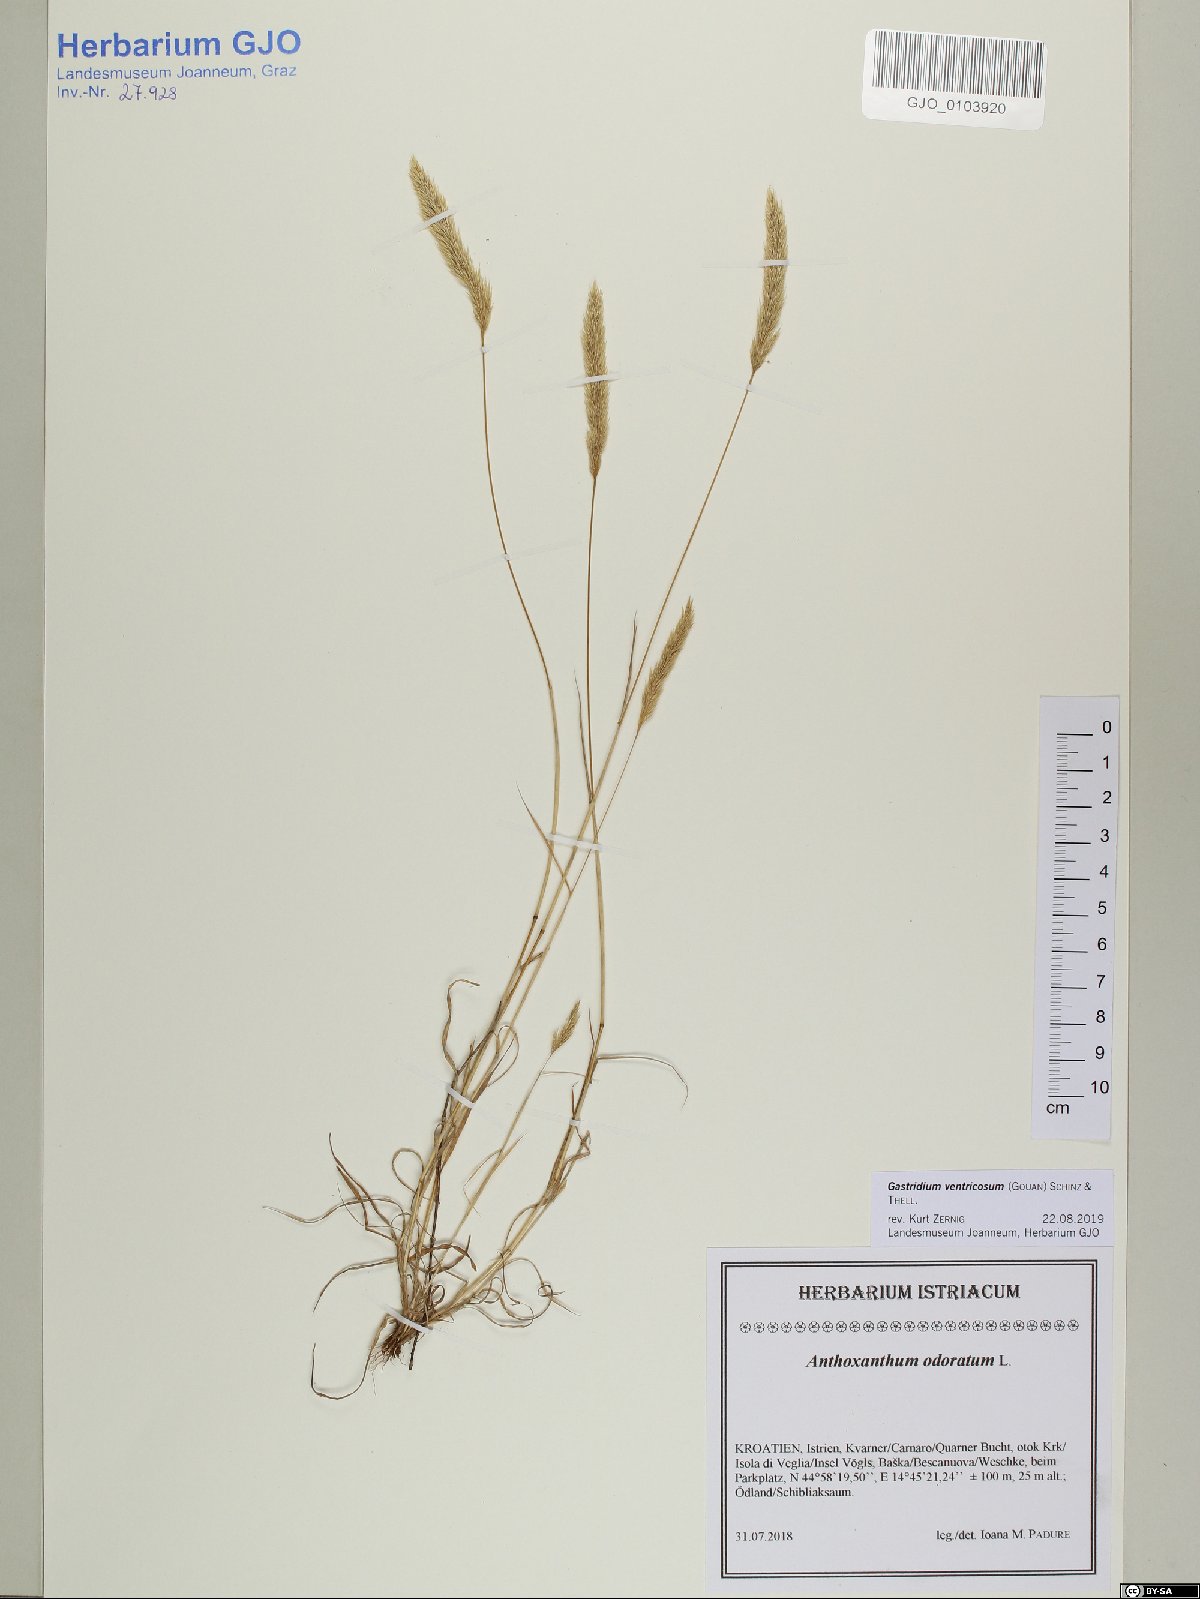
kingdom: Plantae
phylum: Tracheophyta
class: Liliopsida
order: Poales
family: Poaceae
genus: Gastridium
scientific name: Gastridium ventricosum
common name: Nit-grass
